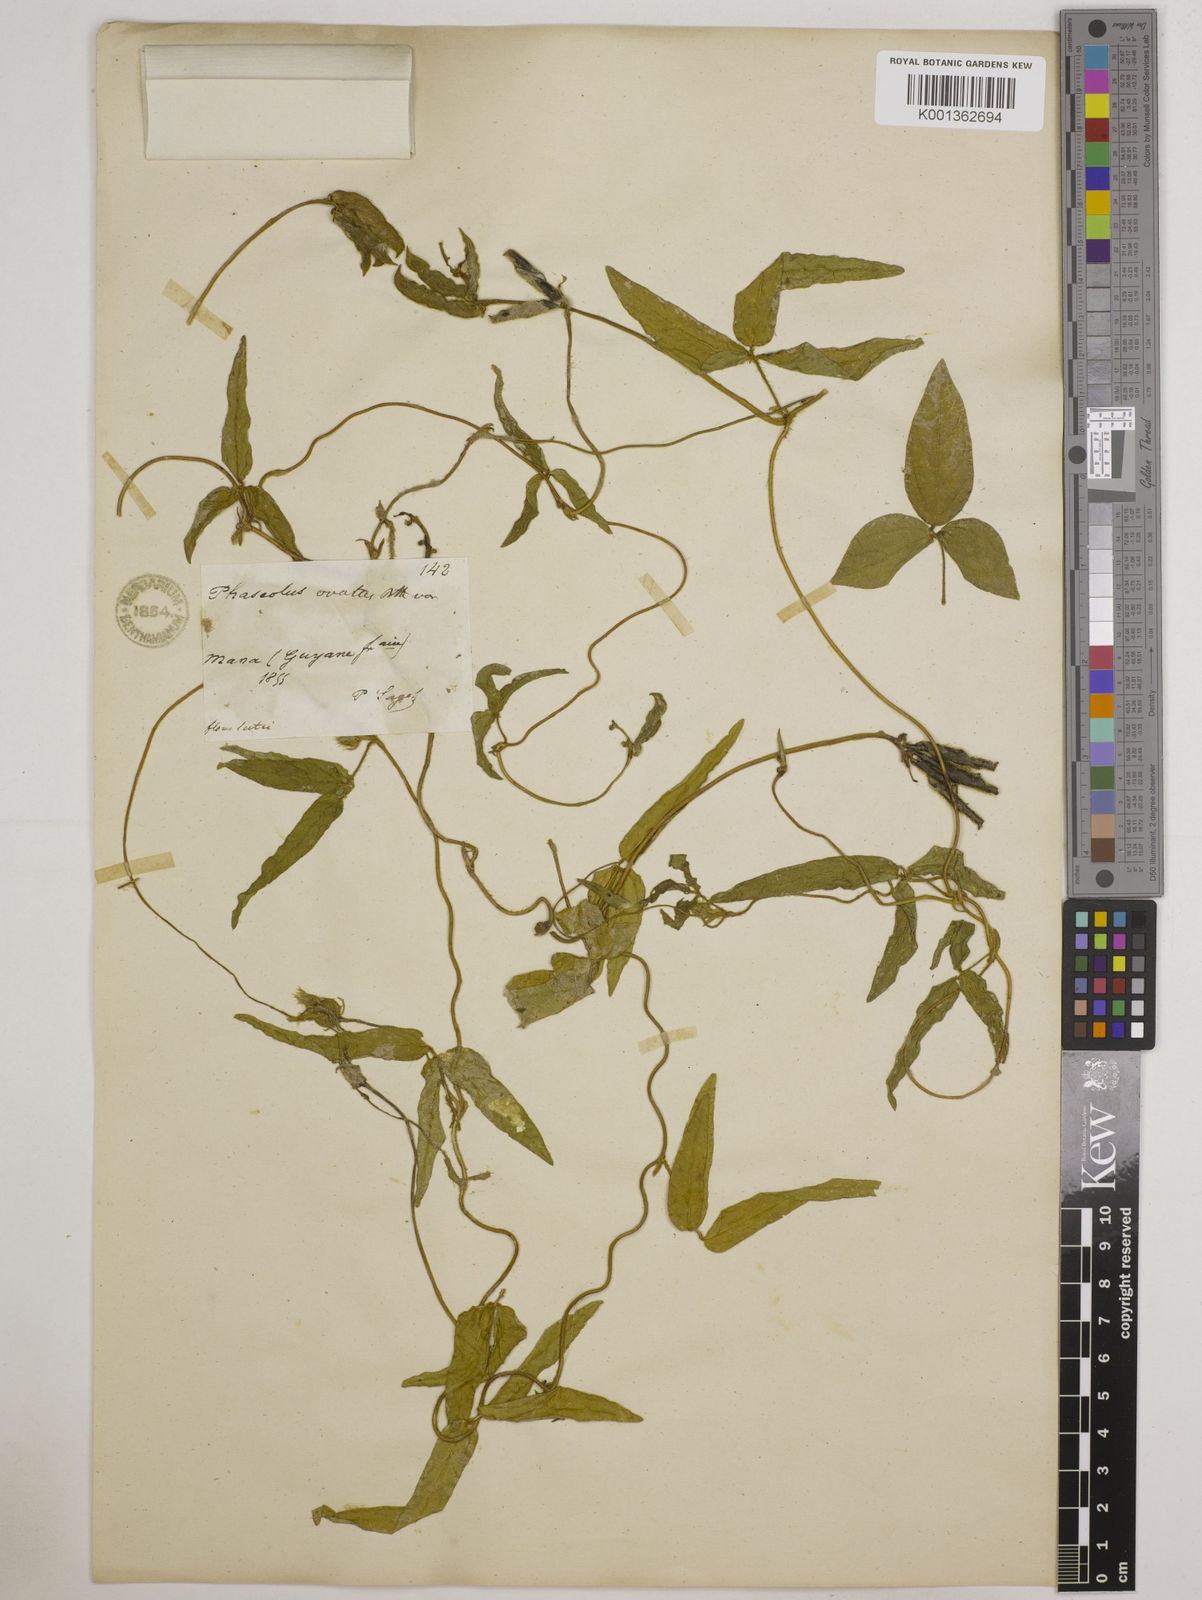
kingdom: Plantae
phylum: Tracheophyta
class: Magnoliopsida
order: Fabales
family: Fabaceae
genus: Vigna
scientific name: Vigna longifolia
